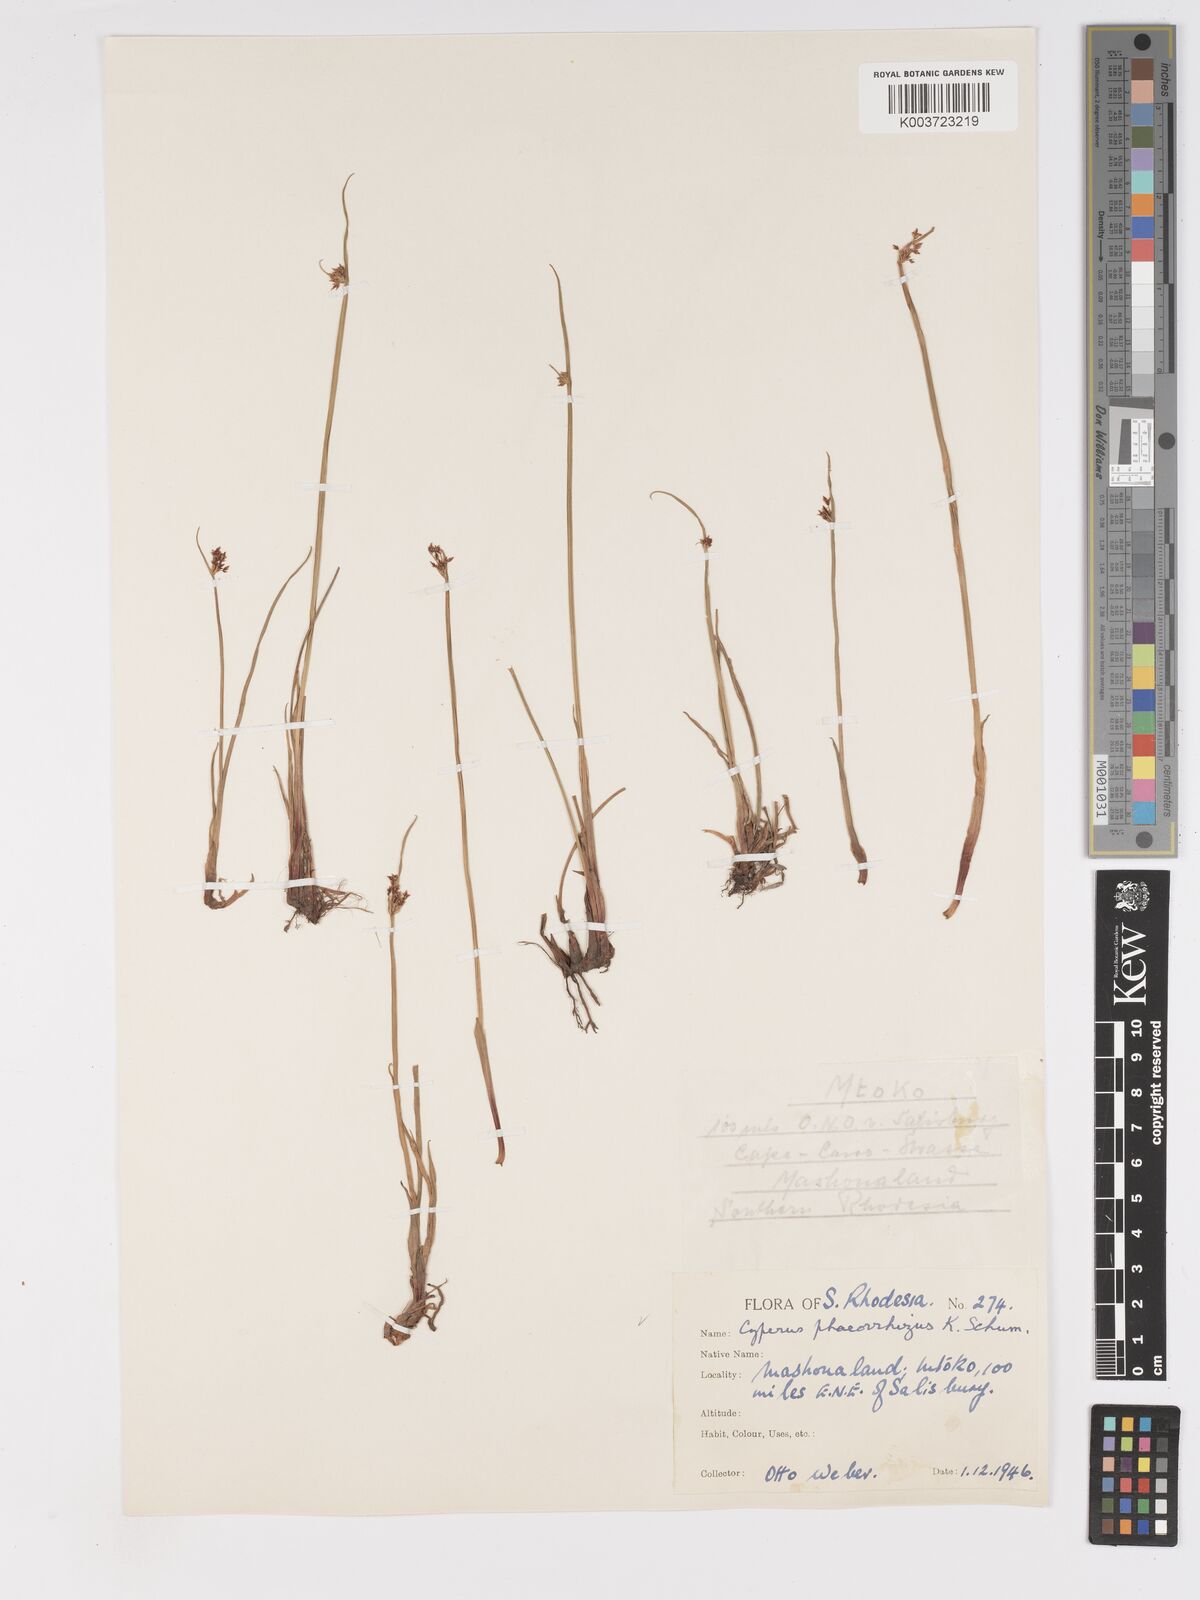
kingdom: Plantae
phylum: Tracheophyta
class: Liliopsida
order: Poales
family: Cyperaceae
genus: Cyperus
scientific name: Cyperus haspan
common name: Haspan flatsedge
